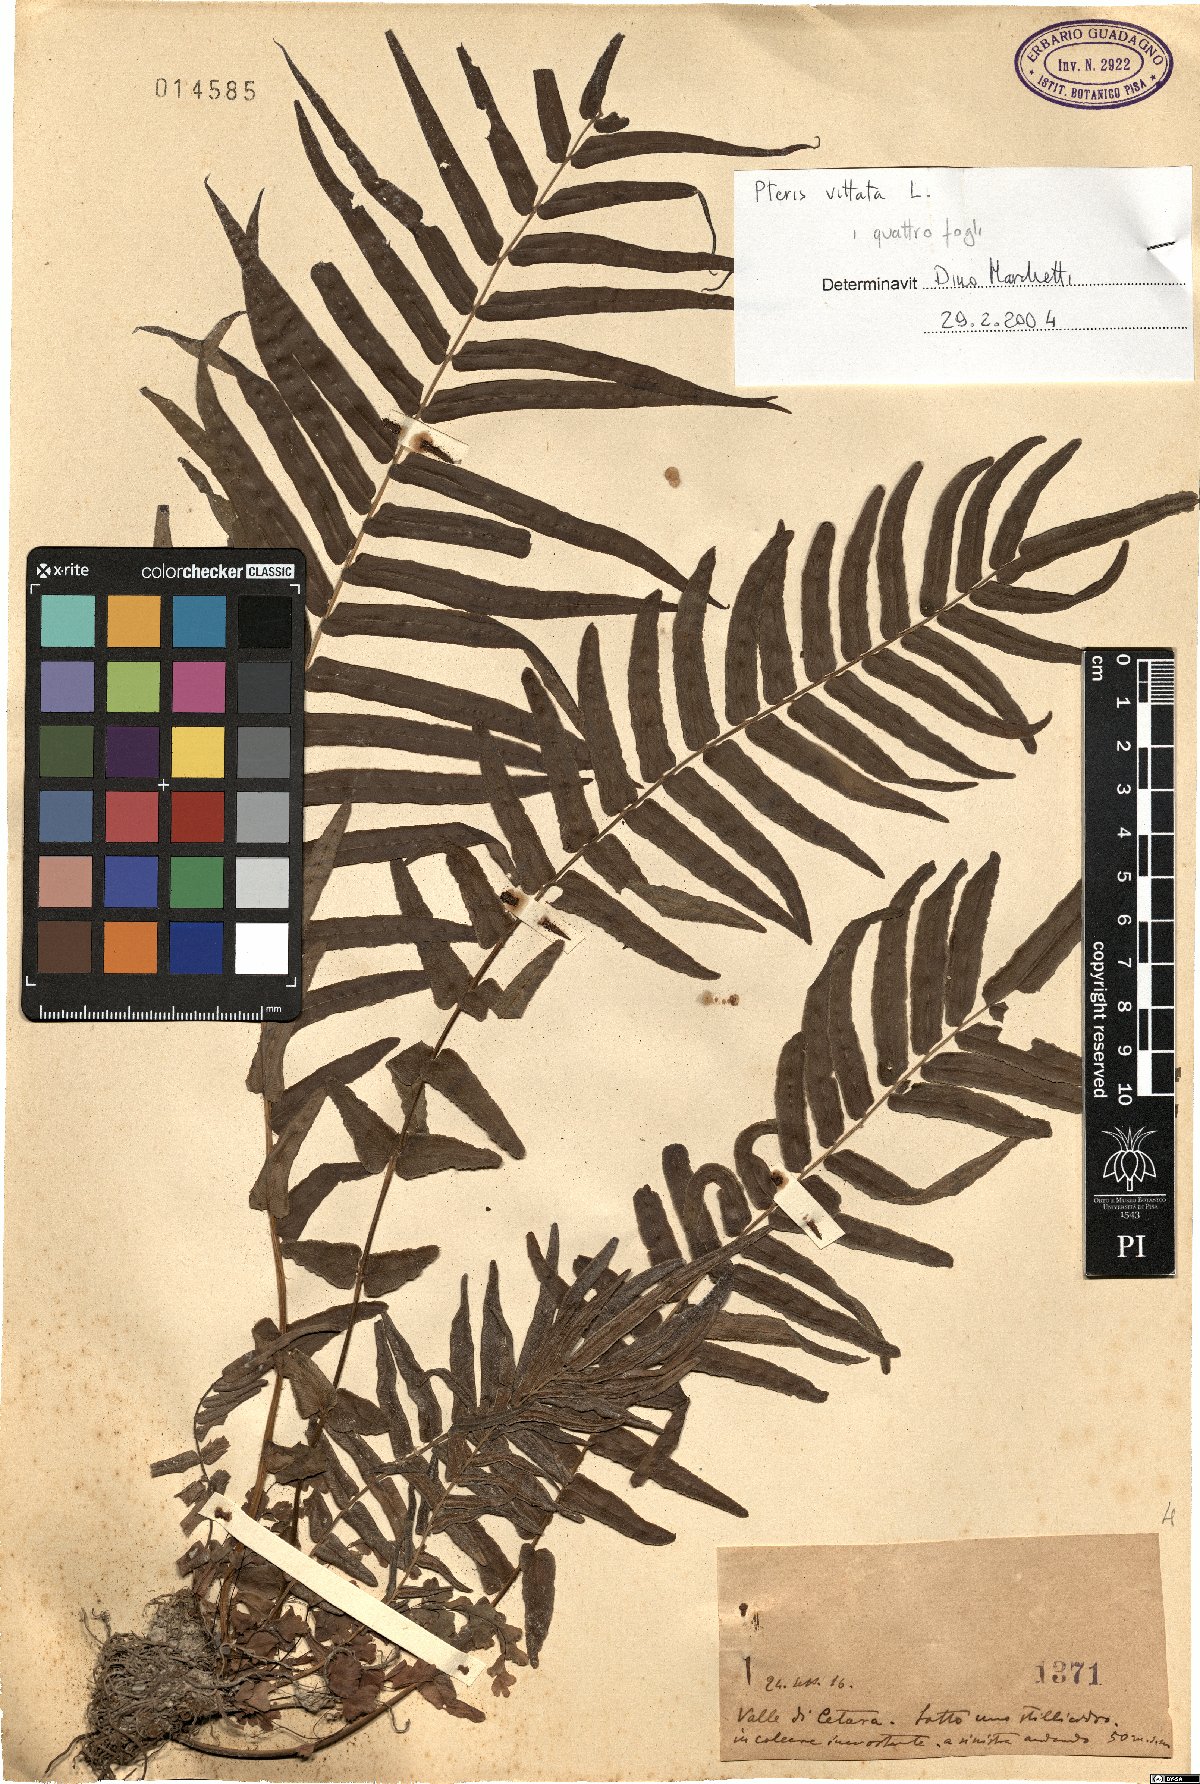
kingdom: Plantae
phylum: Tracheophyta
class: Polypodiopsida
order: Polypodiales
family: Pteridaceae
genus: Pteris
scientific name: Pteris vittata
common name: Ladder brake
